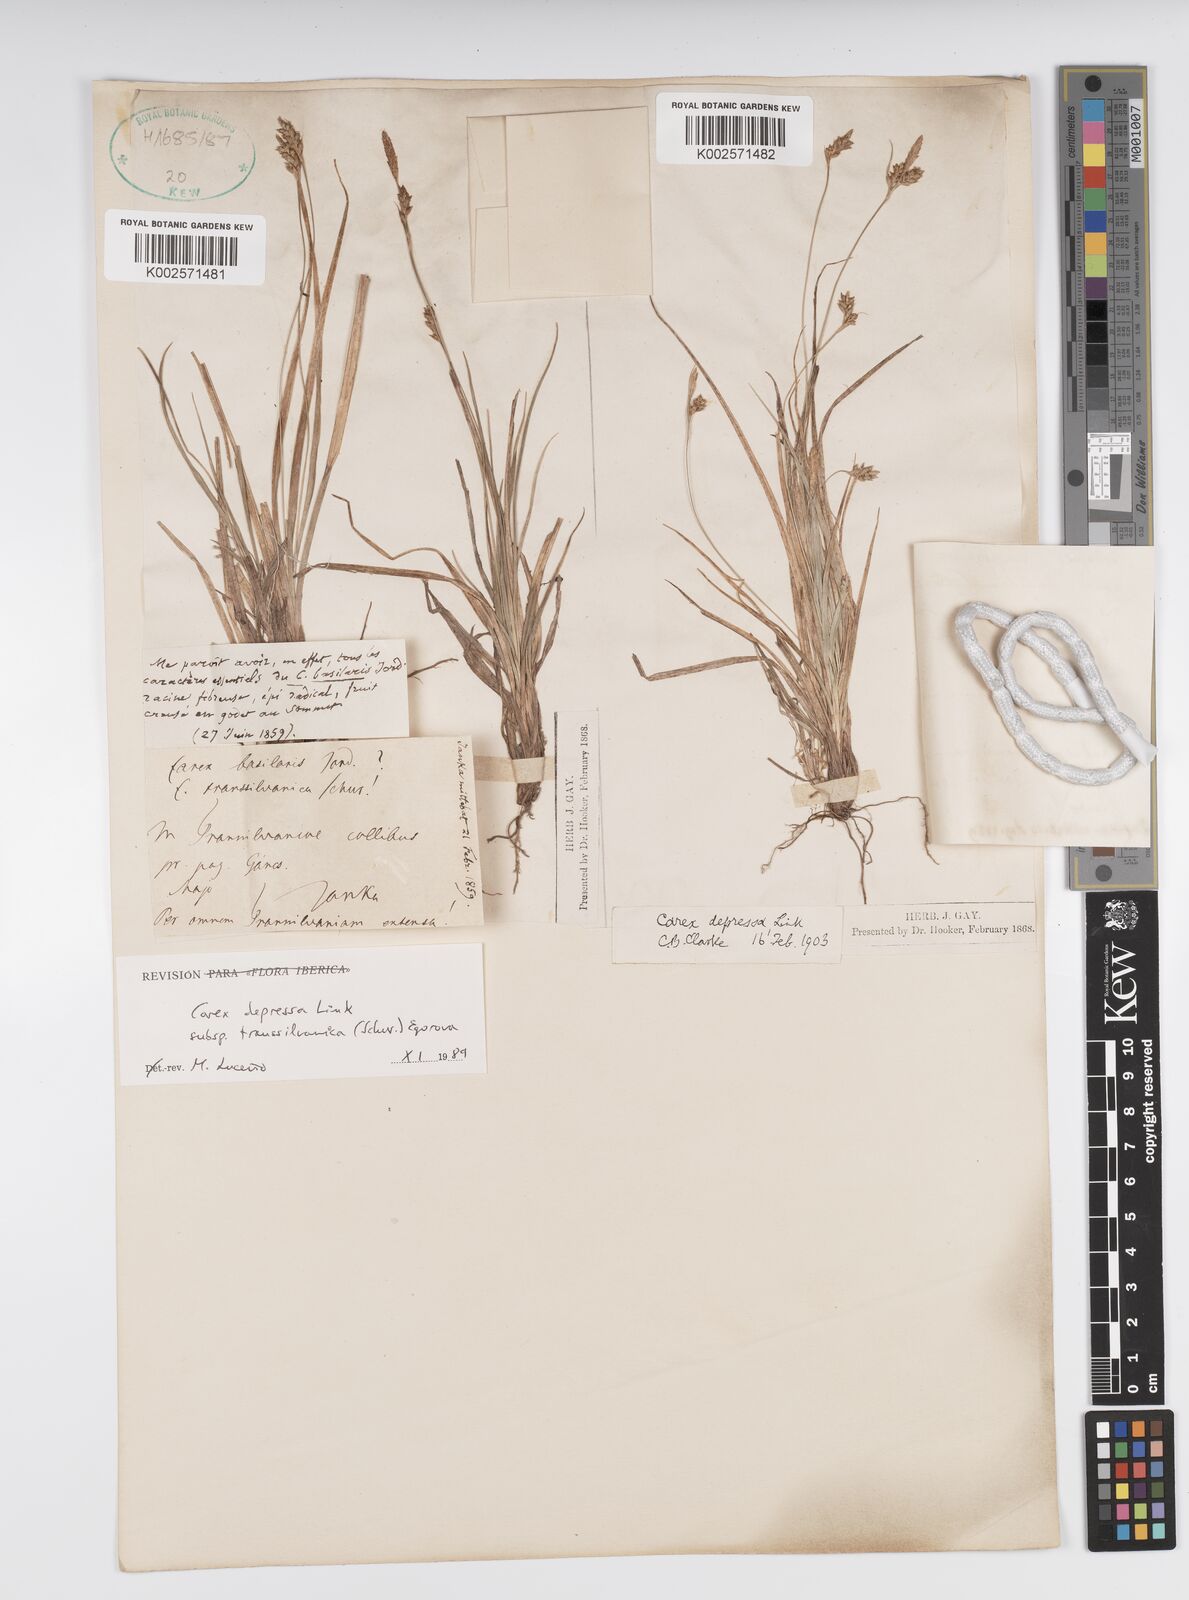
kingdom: Plantae
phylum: Tracheophyta
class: Liliopsida
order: Poales
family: Cyperaceae
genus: Carex
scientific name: Carex depressa
